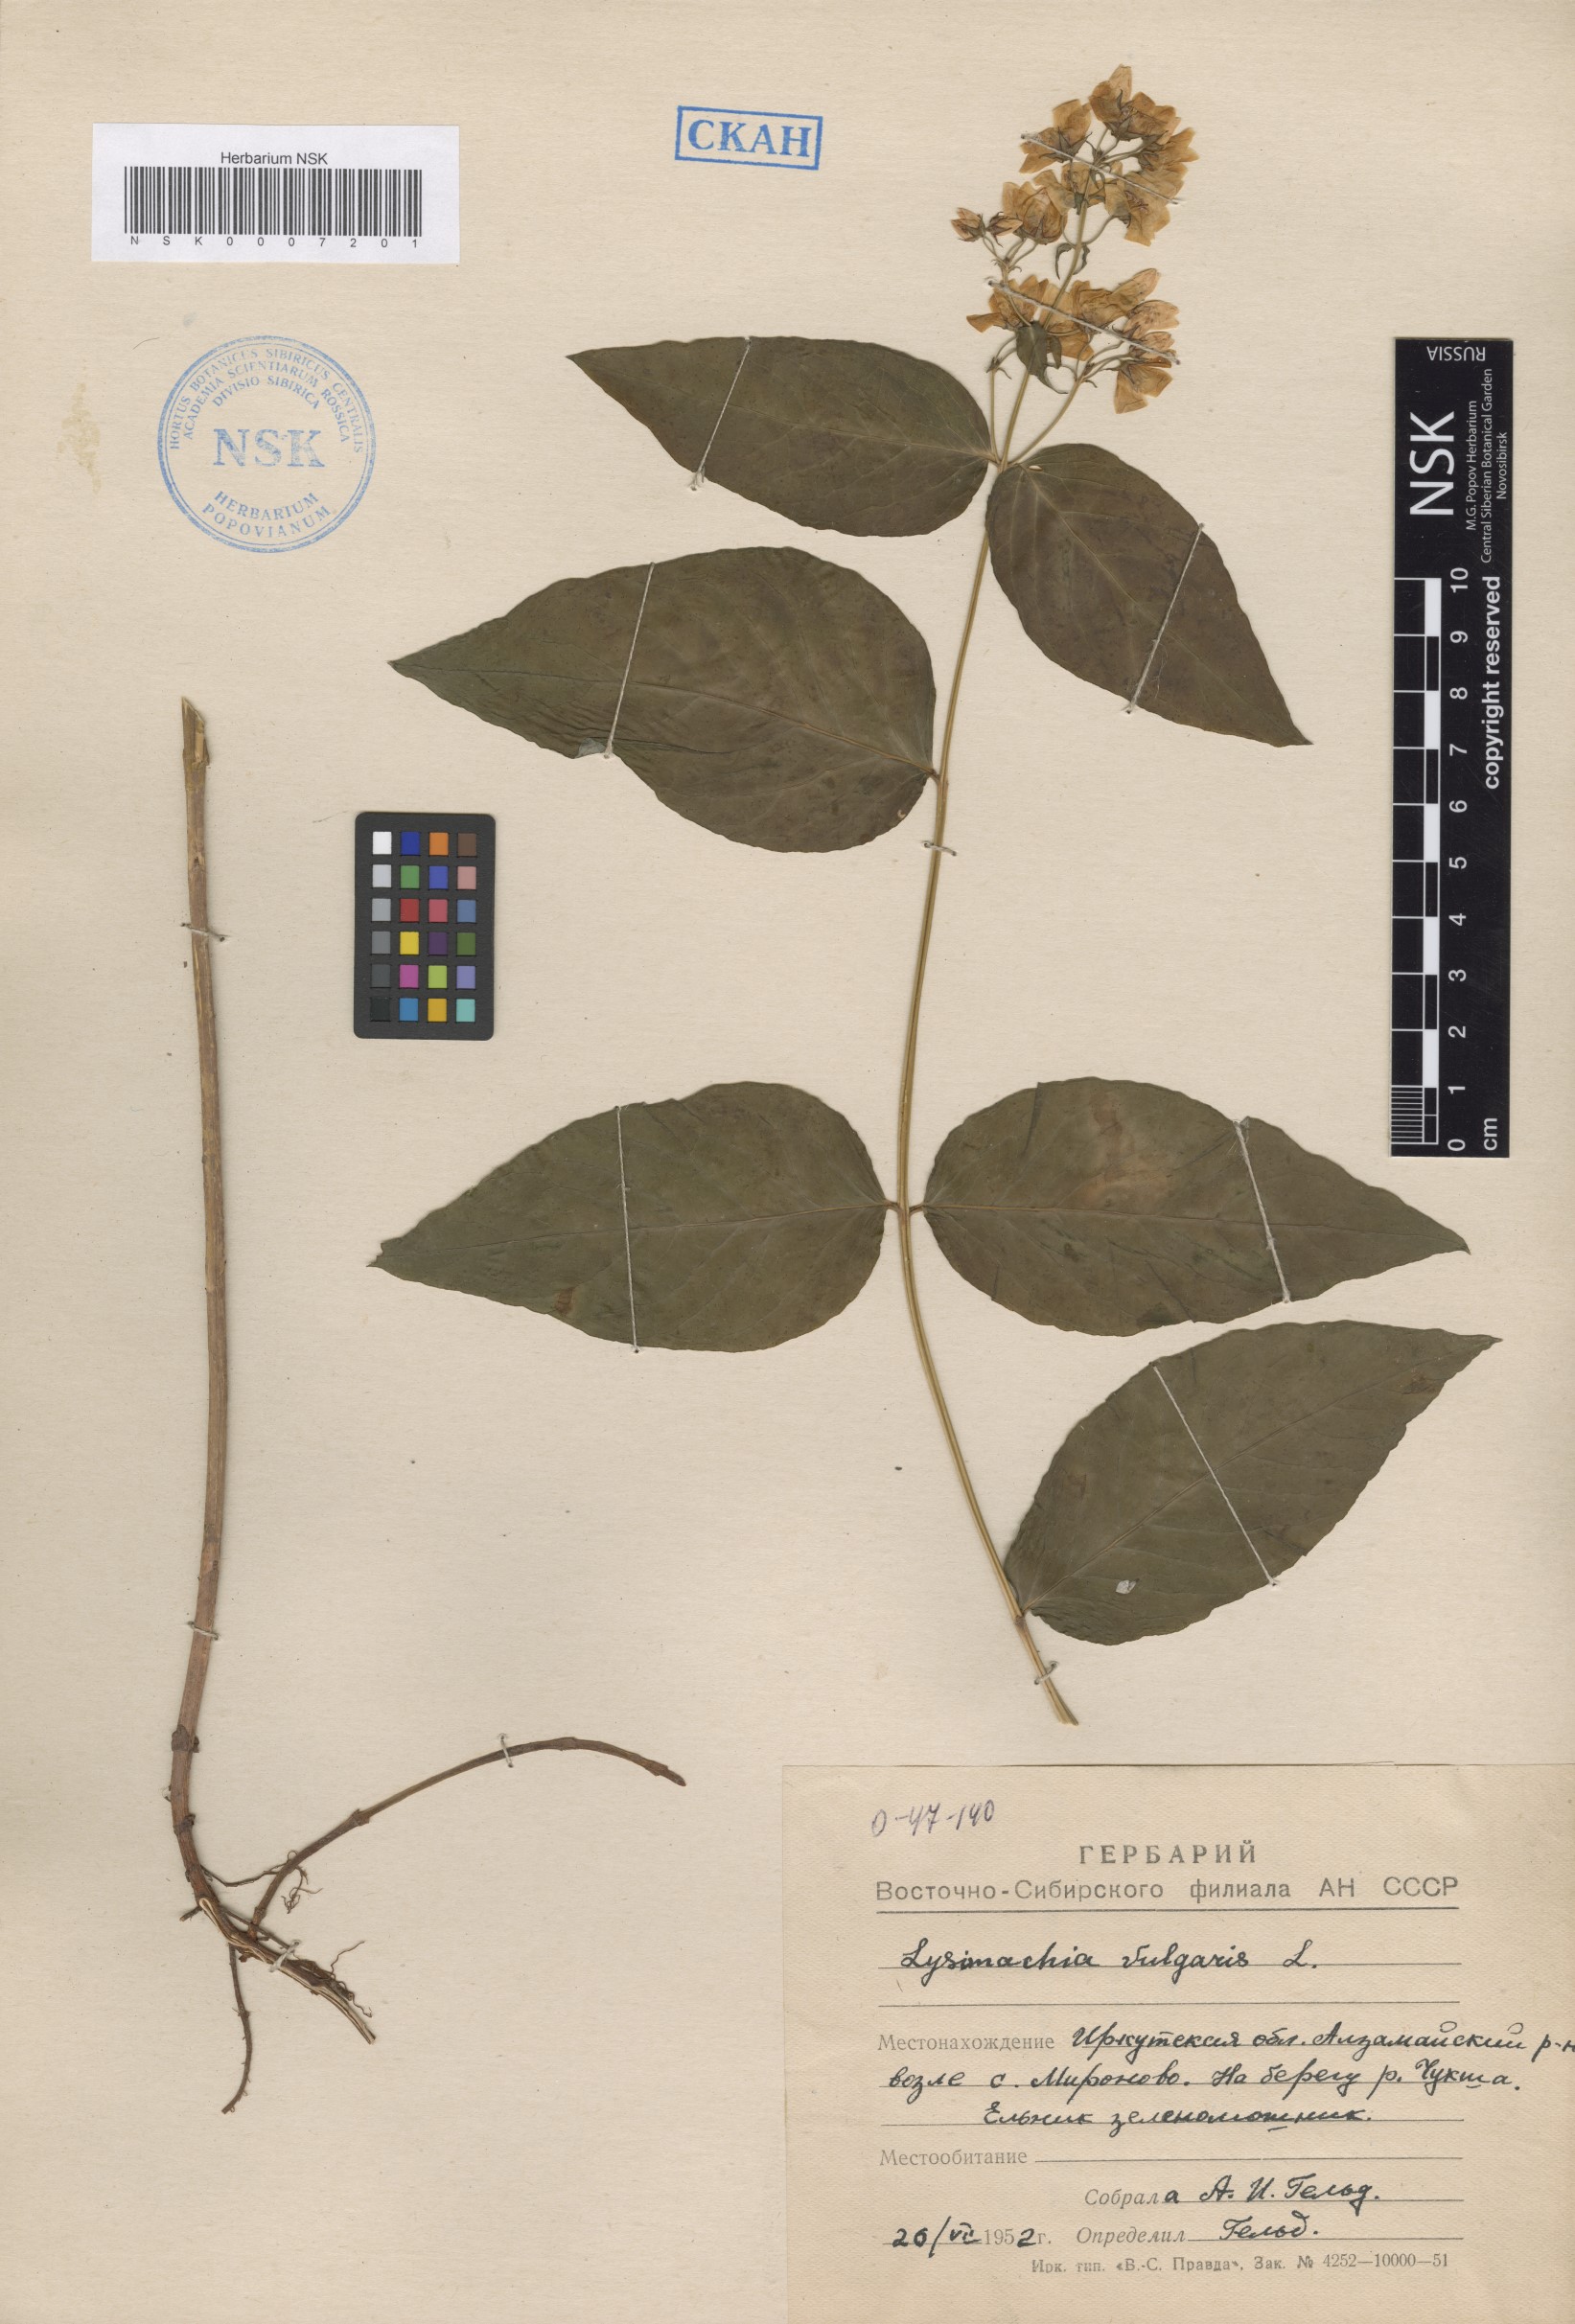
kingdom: Plantae
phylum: Tracheophyta
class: Magnoliopsida
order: Ericales
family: Primulaceae
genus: Lysimachia
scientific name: Lysimachia vulgaris
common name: Yellow loosestrife
